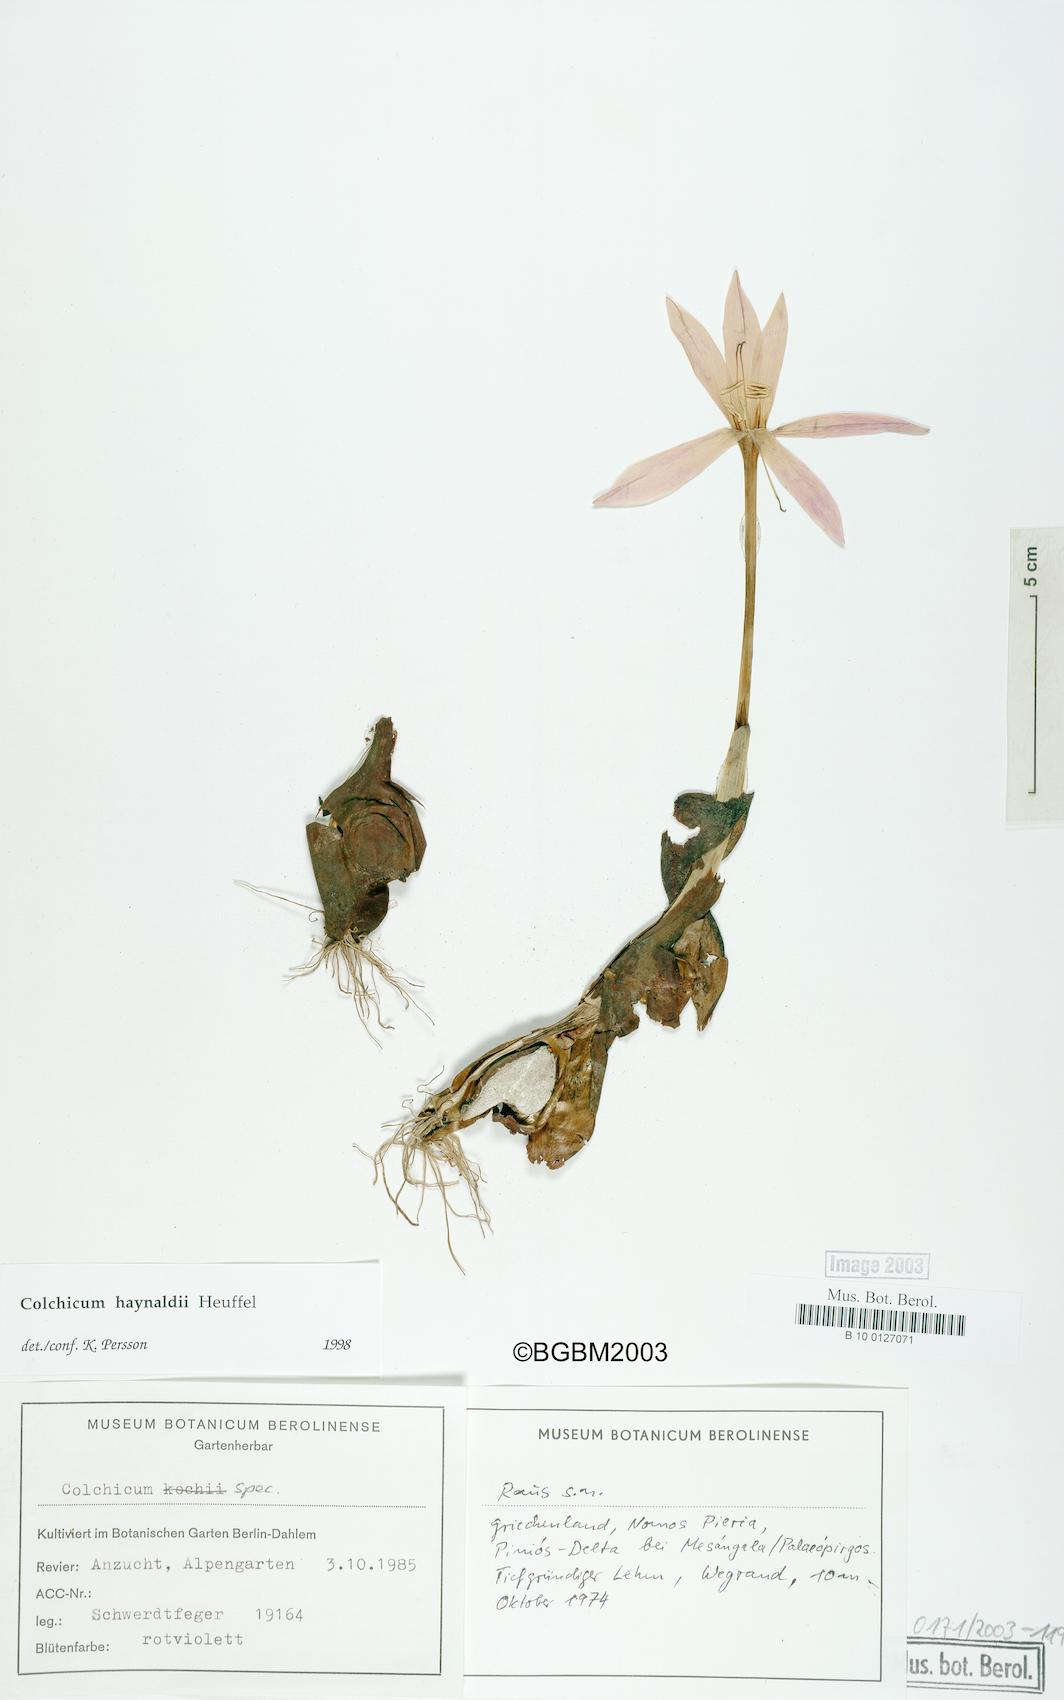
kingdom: Plantae
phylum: Tracheophyta
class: Liliopsida
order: Liliales
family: Colchicaceae
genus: Colchicum
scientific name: Colchicum haynaldii
